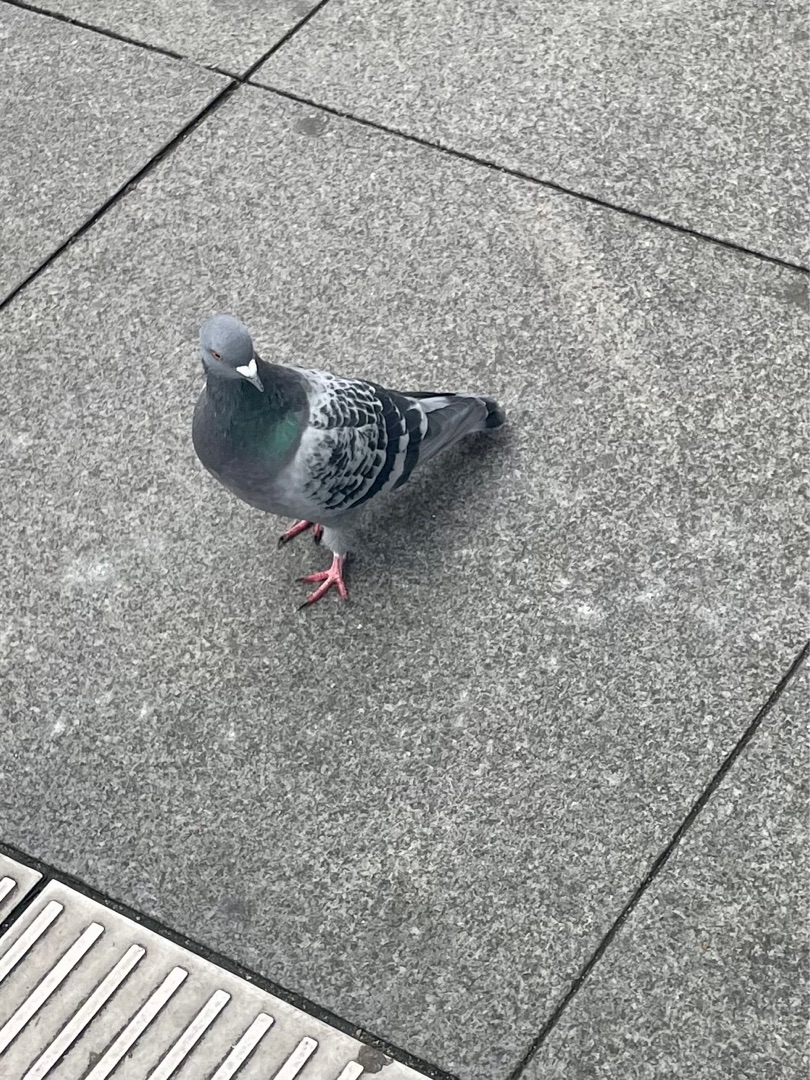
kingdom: Animalia
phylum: Chordata
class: Aves
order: Columbiformes
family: Columbidae
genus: Columba
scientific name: Columba livia
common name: Klippedue
